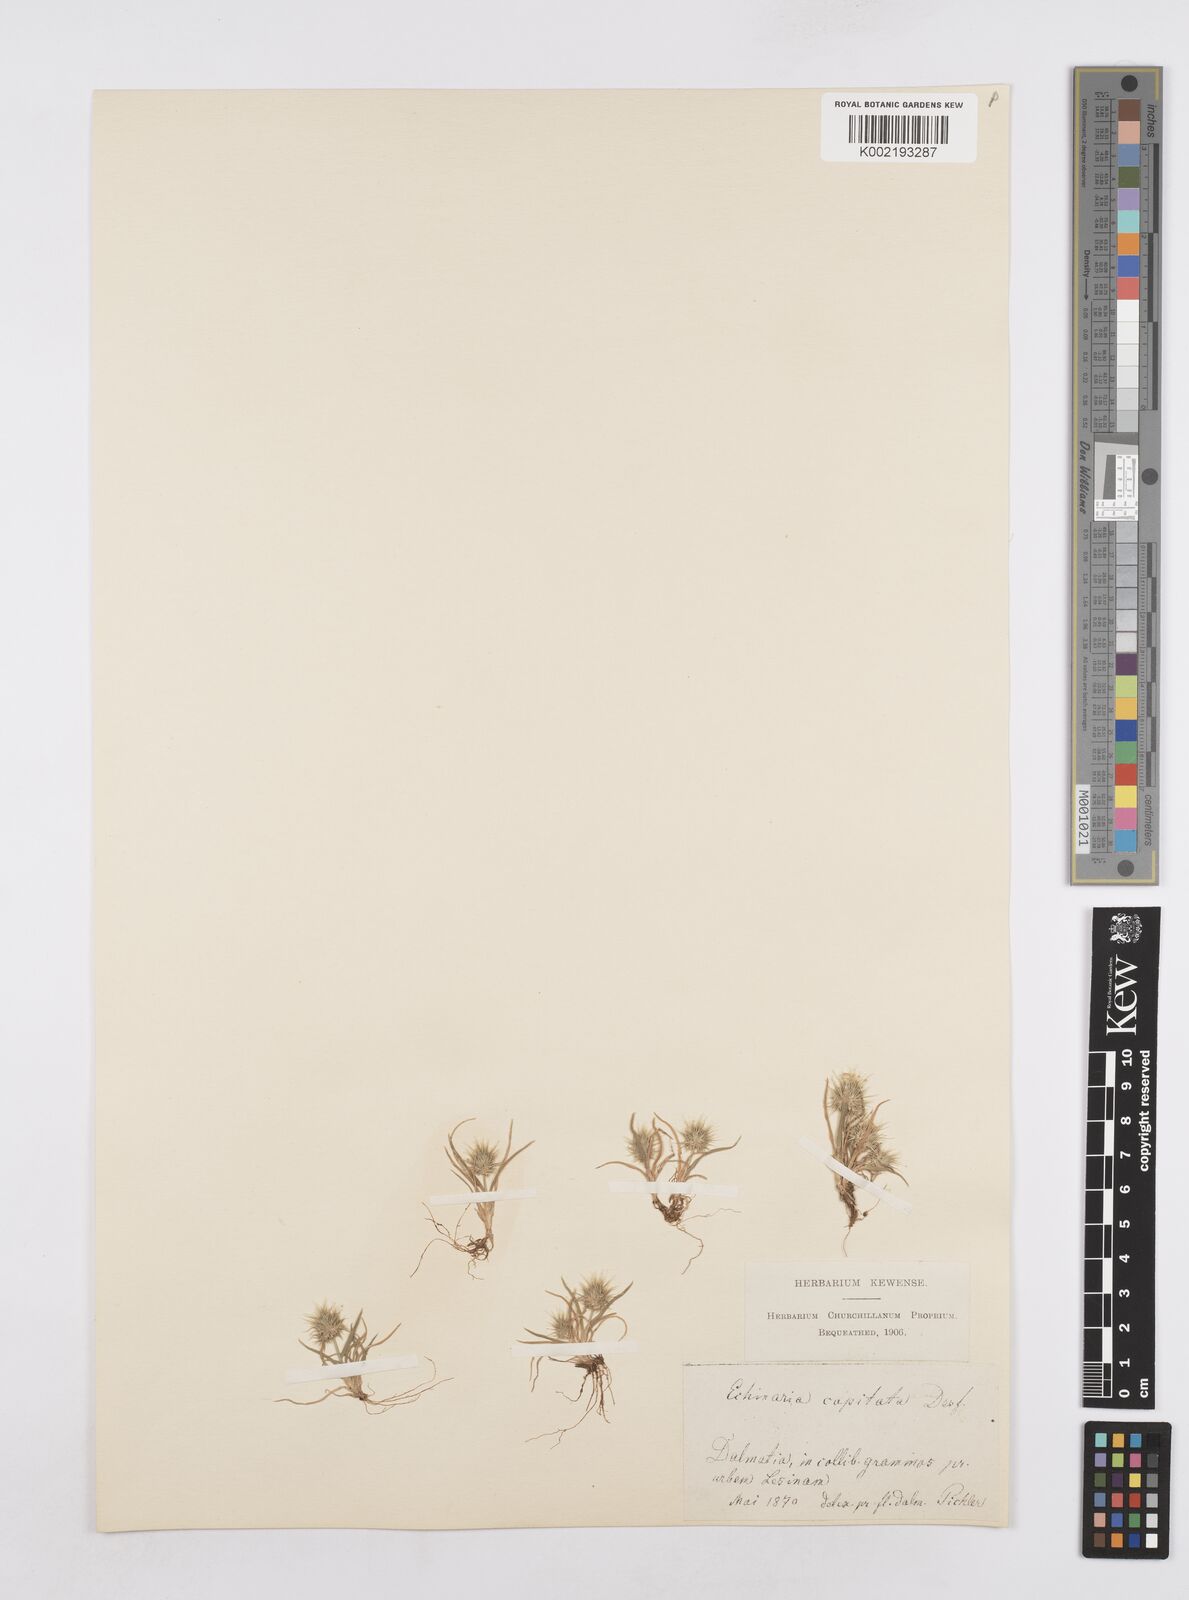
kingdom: Plantae
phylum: Tracheophyta
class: Liliopsida
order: Poales
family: Poaceae
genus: Echinaria
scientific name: Echinaria capitata
